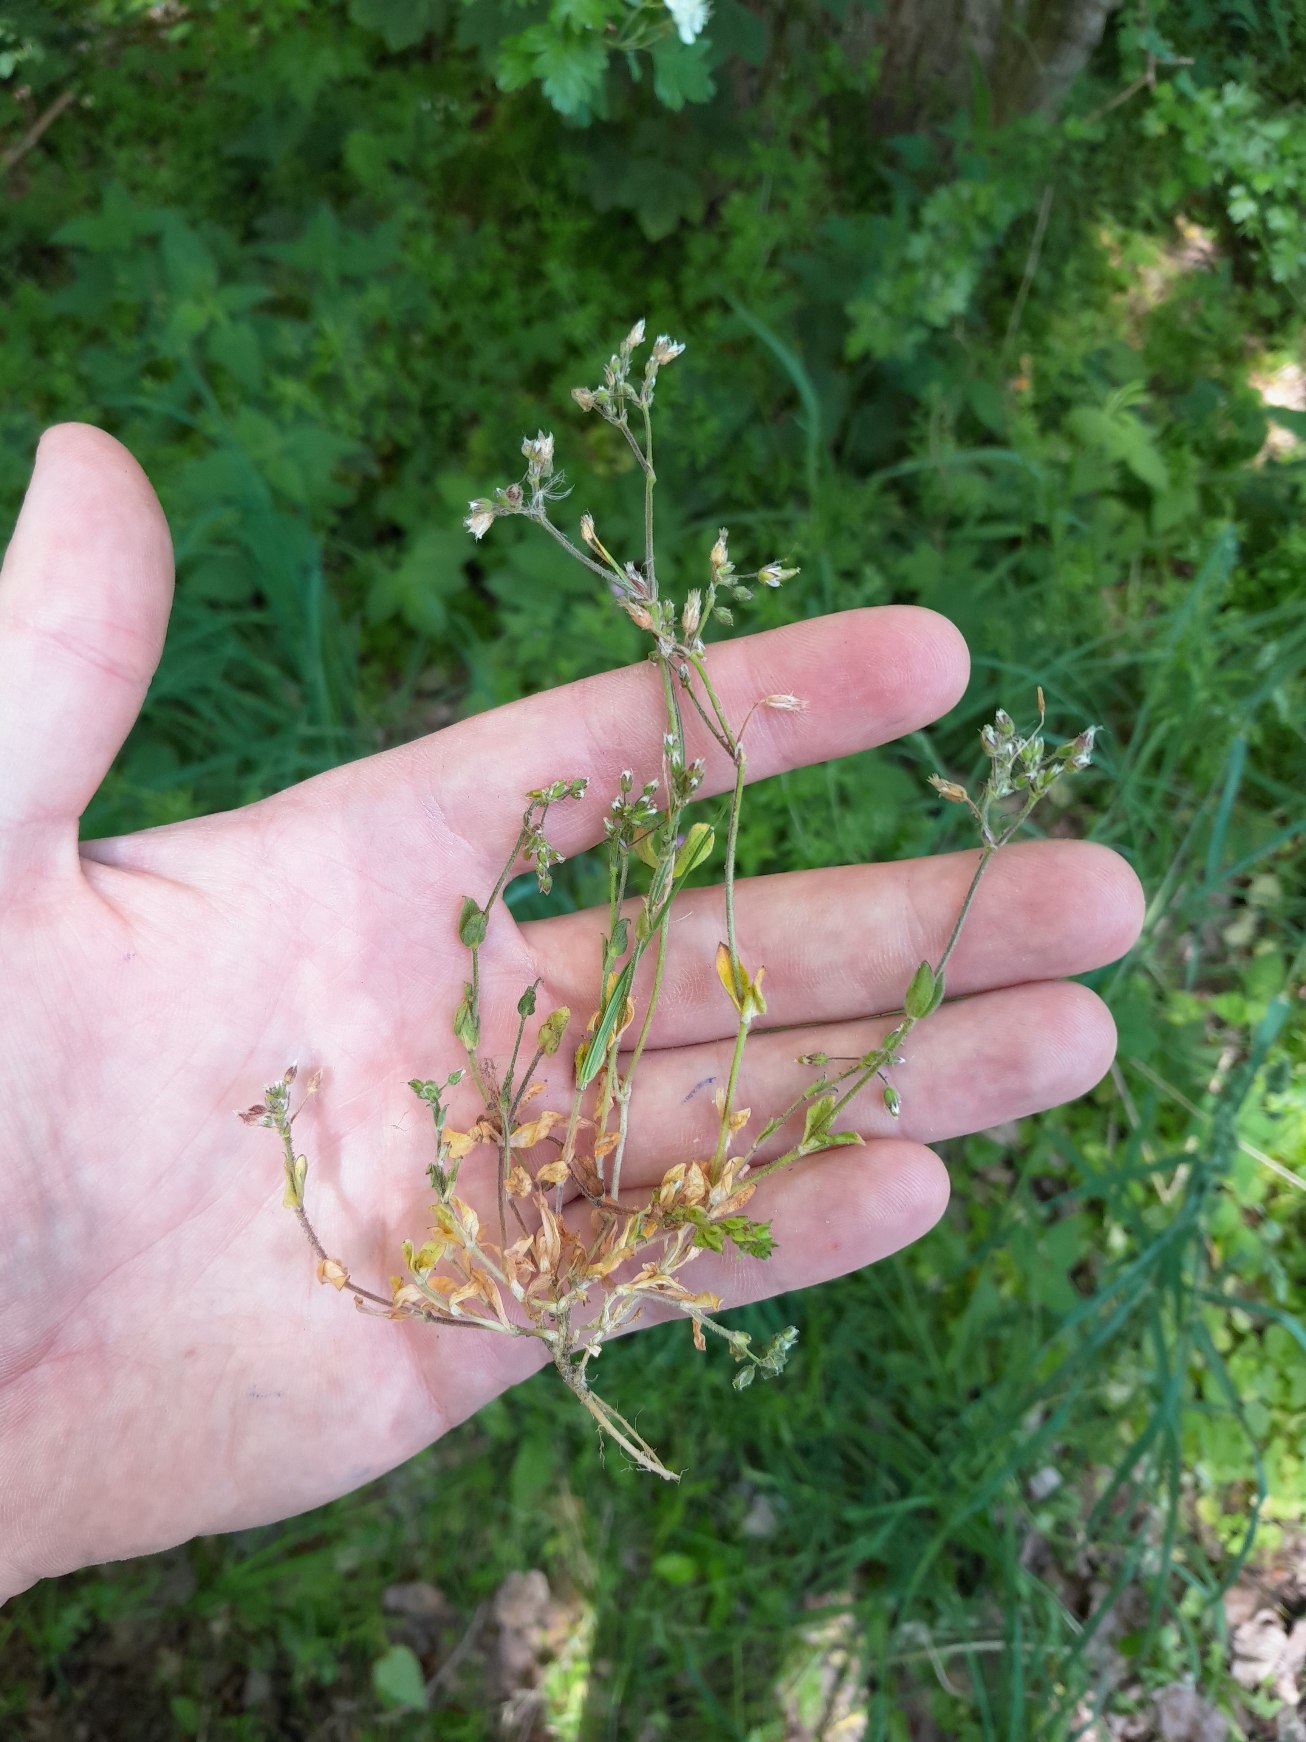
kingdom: Plantae
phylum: Tracheophyta
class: Magnoliopsida
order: Caryophyllales
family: Caryophyllaceae
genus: Cerastium
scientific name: Cerastium semidecandrum
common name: Femhannet hønsetarm
